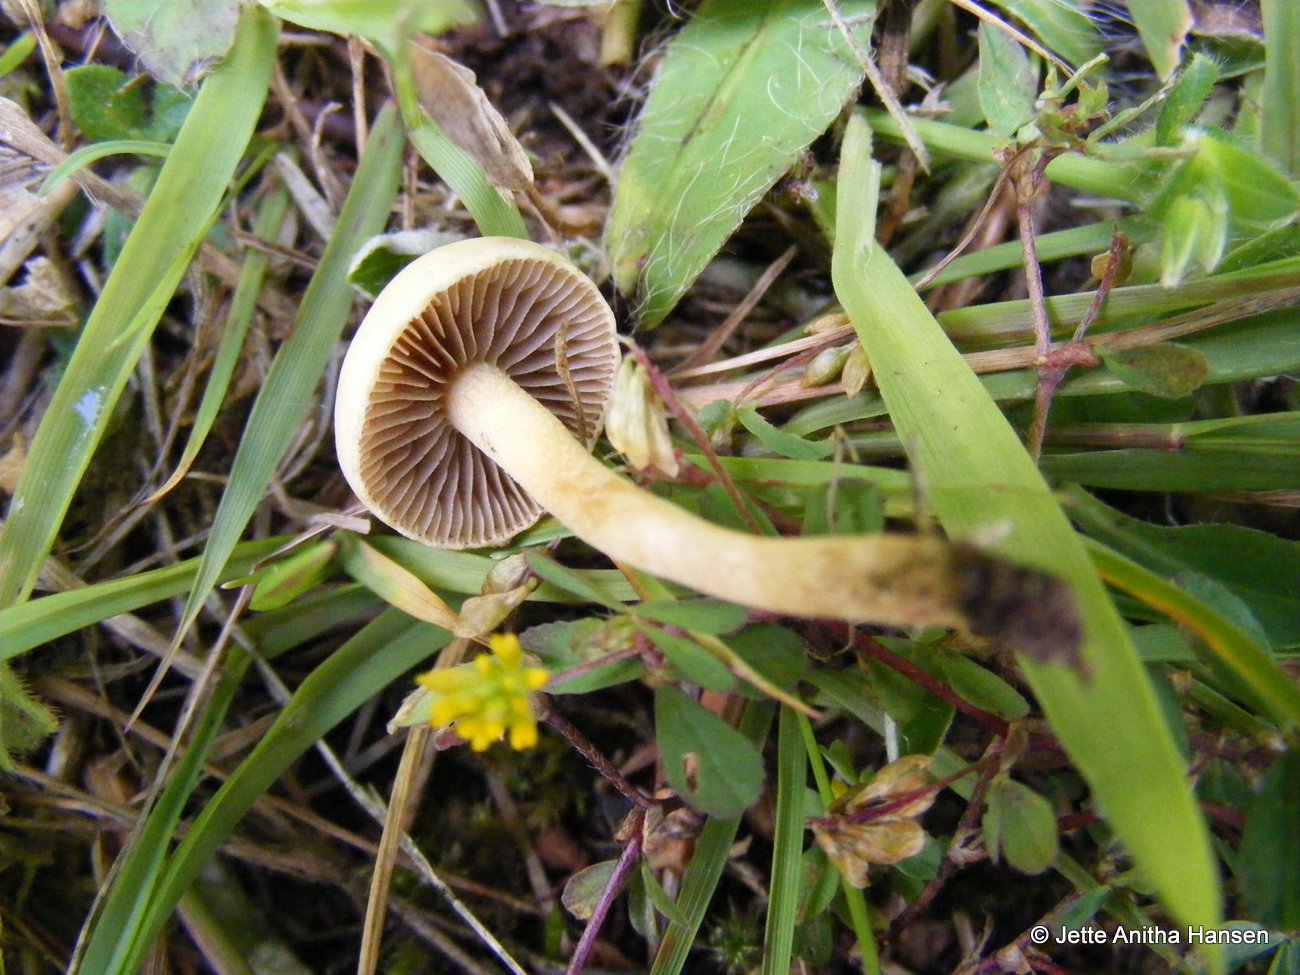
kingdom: Fungi
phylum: Basidiomycota
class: Agaricomycetes
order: Agaricales
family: Strophariaceae
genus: Agrocybe
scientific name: Agrocybe pediades
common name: almindelig agerhat
